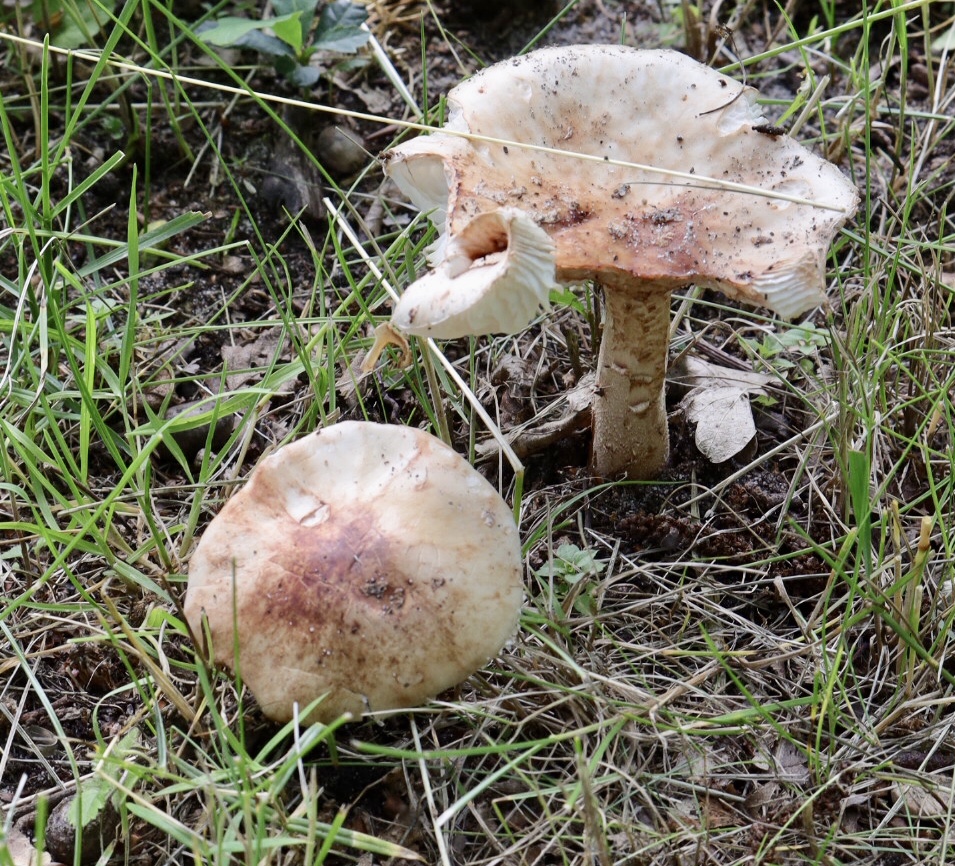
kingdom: Fungi
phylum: Basidiomycota
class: Agaricomycetes
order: Agaricales
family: Amanitaceae
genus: Amanita
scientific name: Amanita rubescens
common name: rødmende fluesvamp
